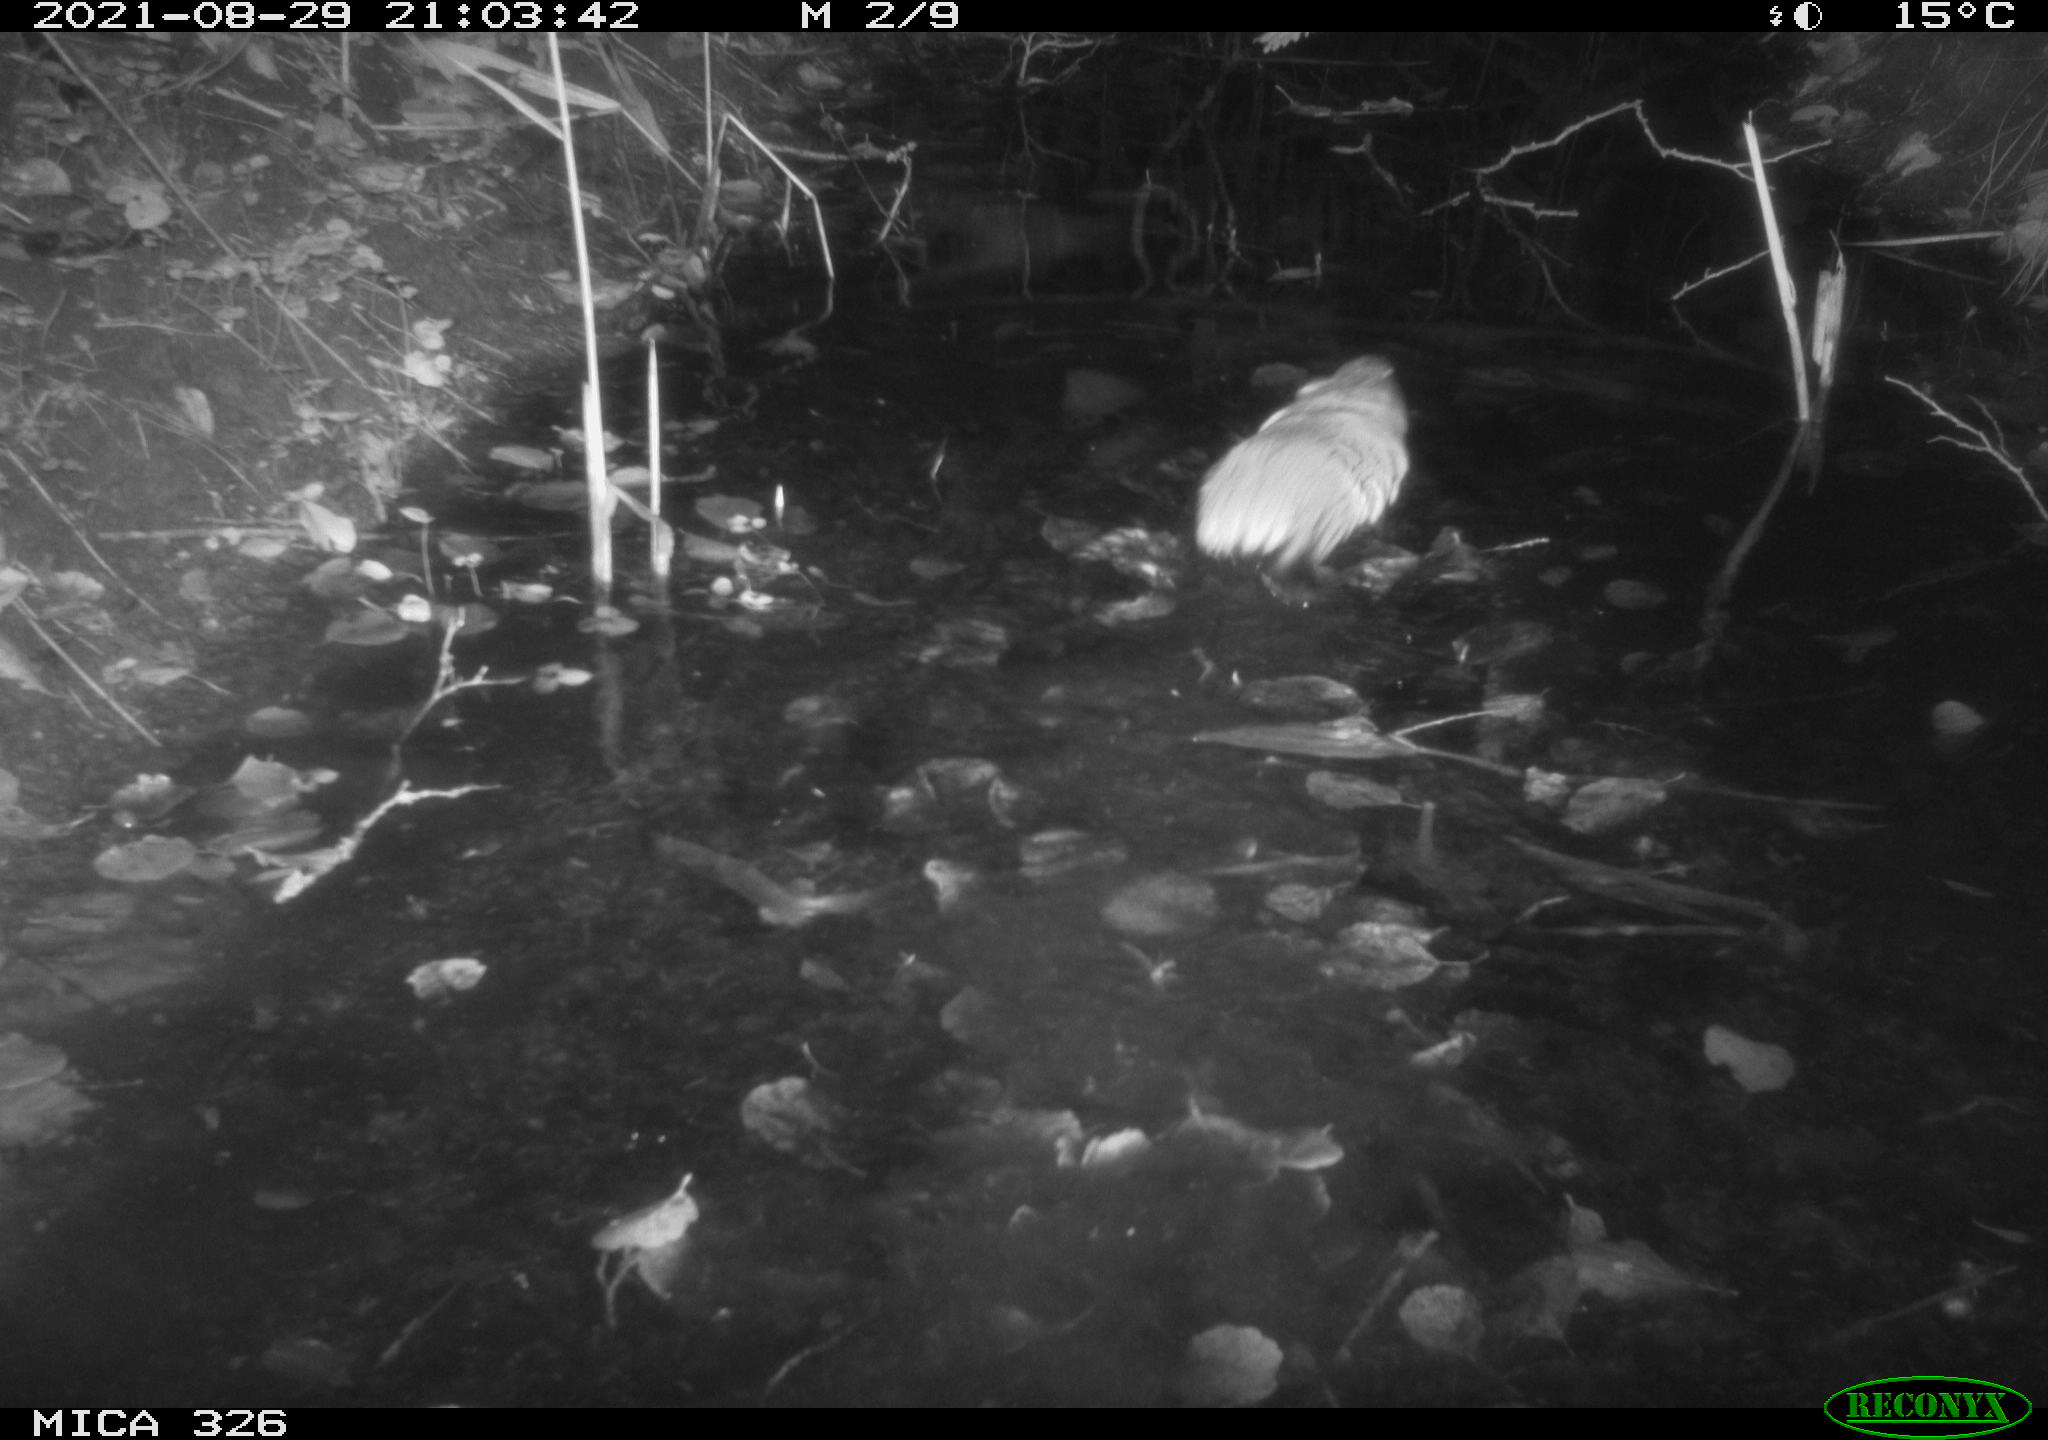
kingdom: Animalia
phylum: Chordata
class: Mammalia
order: Rodentia
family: Cricetidae
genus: Ondatra
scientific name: Ondatra zibethicus
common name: Muskrat
